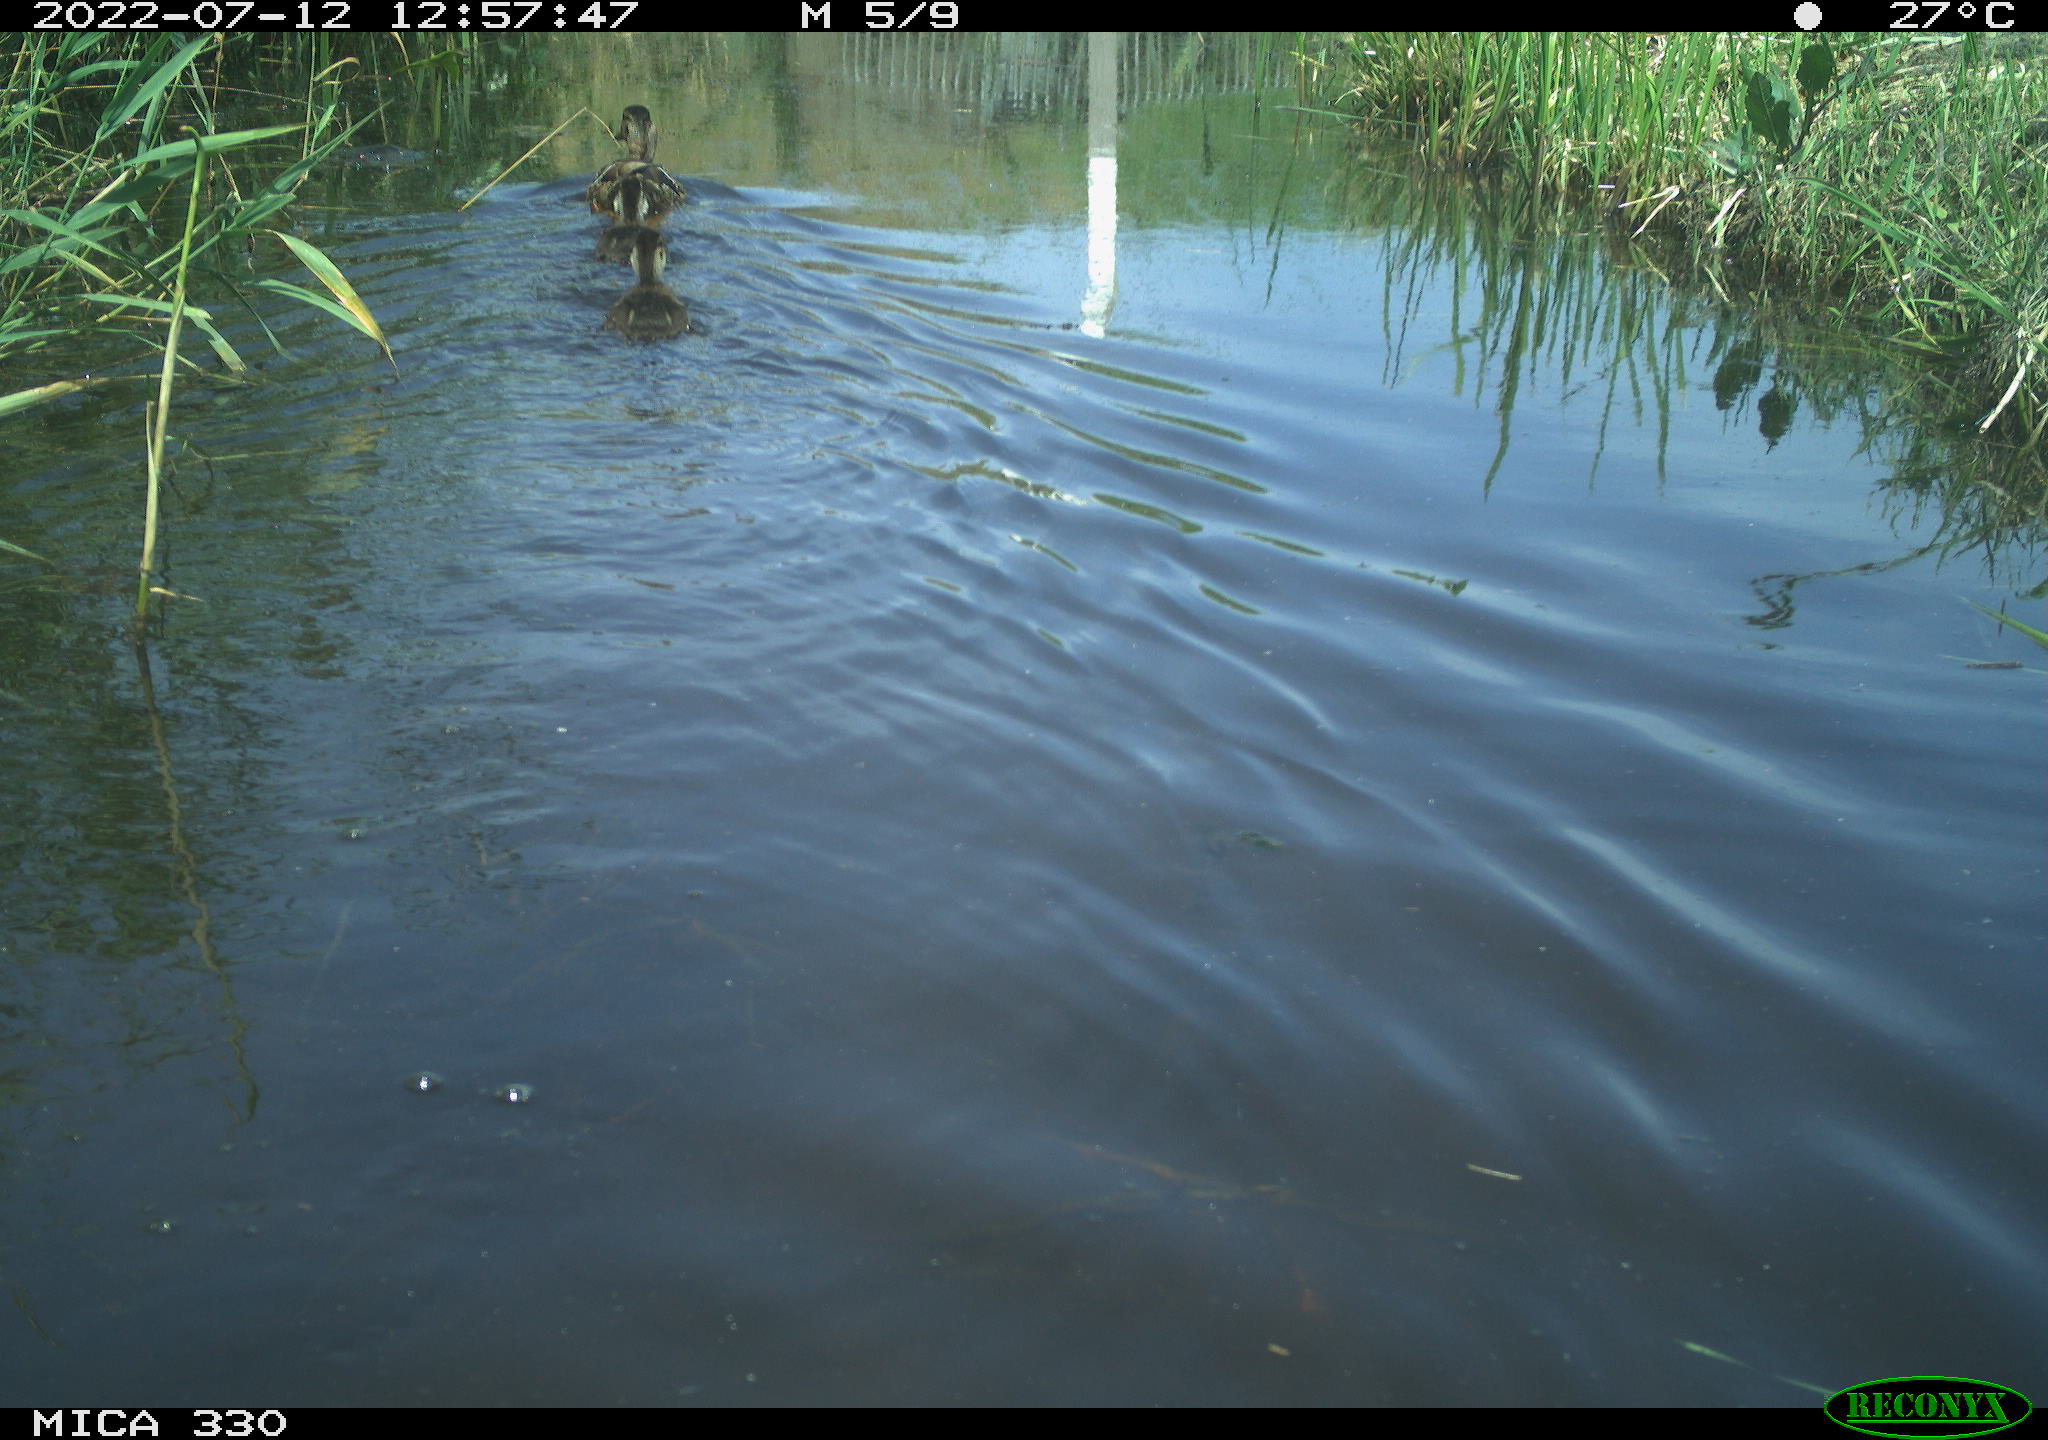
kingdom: Animalia
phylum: Chordata
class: Aves
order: Anseriformes
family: Anatidae
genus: Anas
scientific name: Anas platyrhynchos
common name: Mallard
